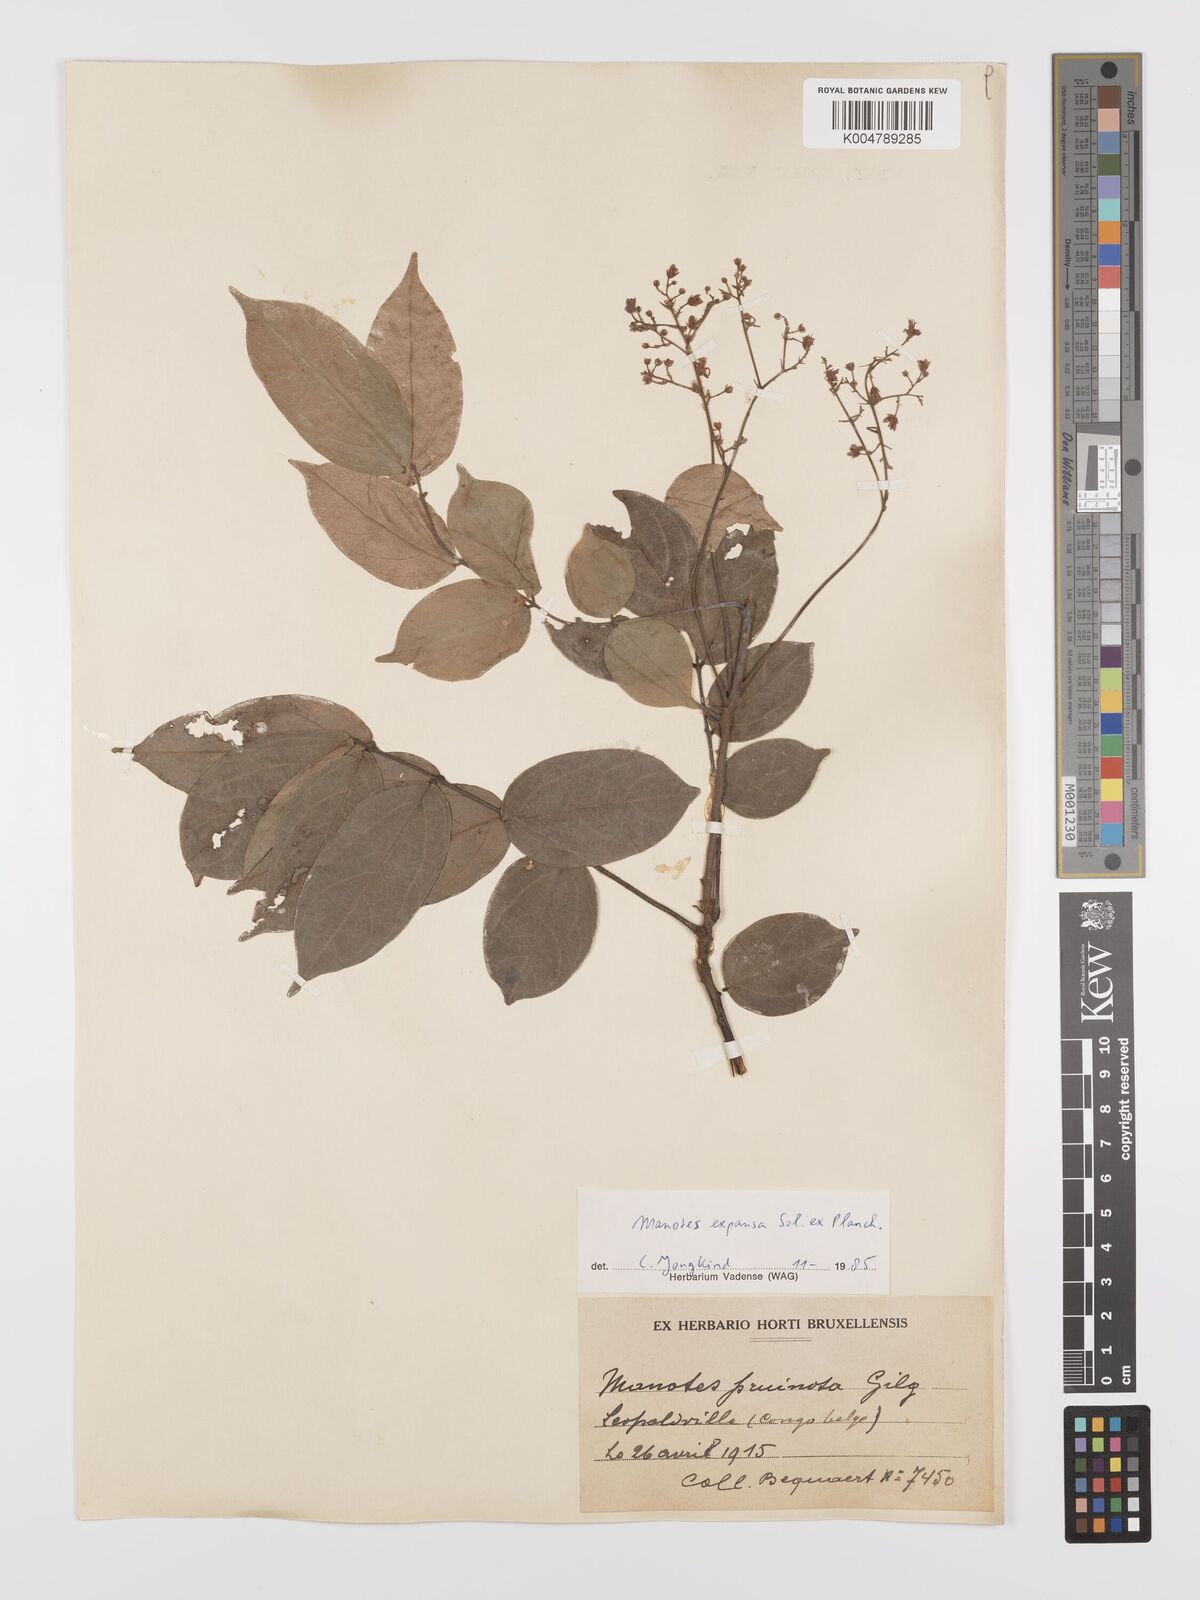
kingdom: Plantae
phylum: Tracheophyta
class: Magnoliopsida
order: Oxalidales
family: Connaraceae
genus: Manotes
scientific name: Manotes expansa
